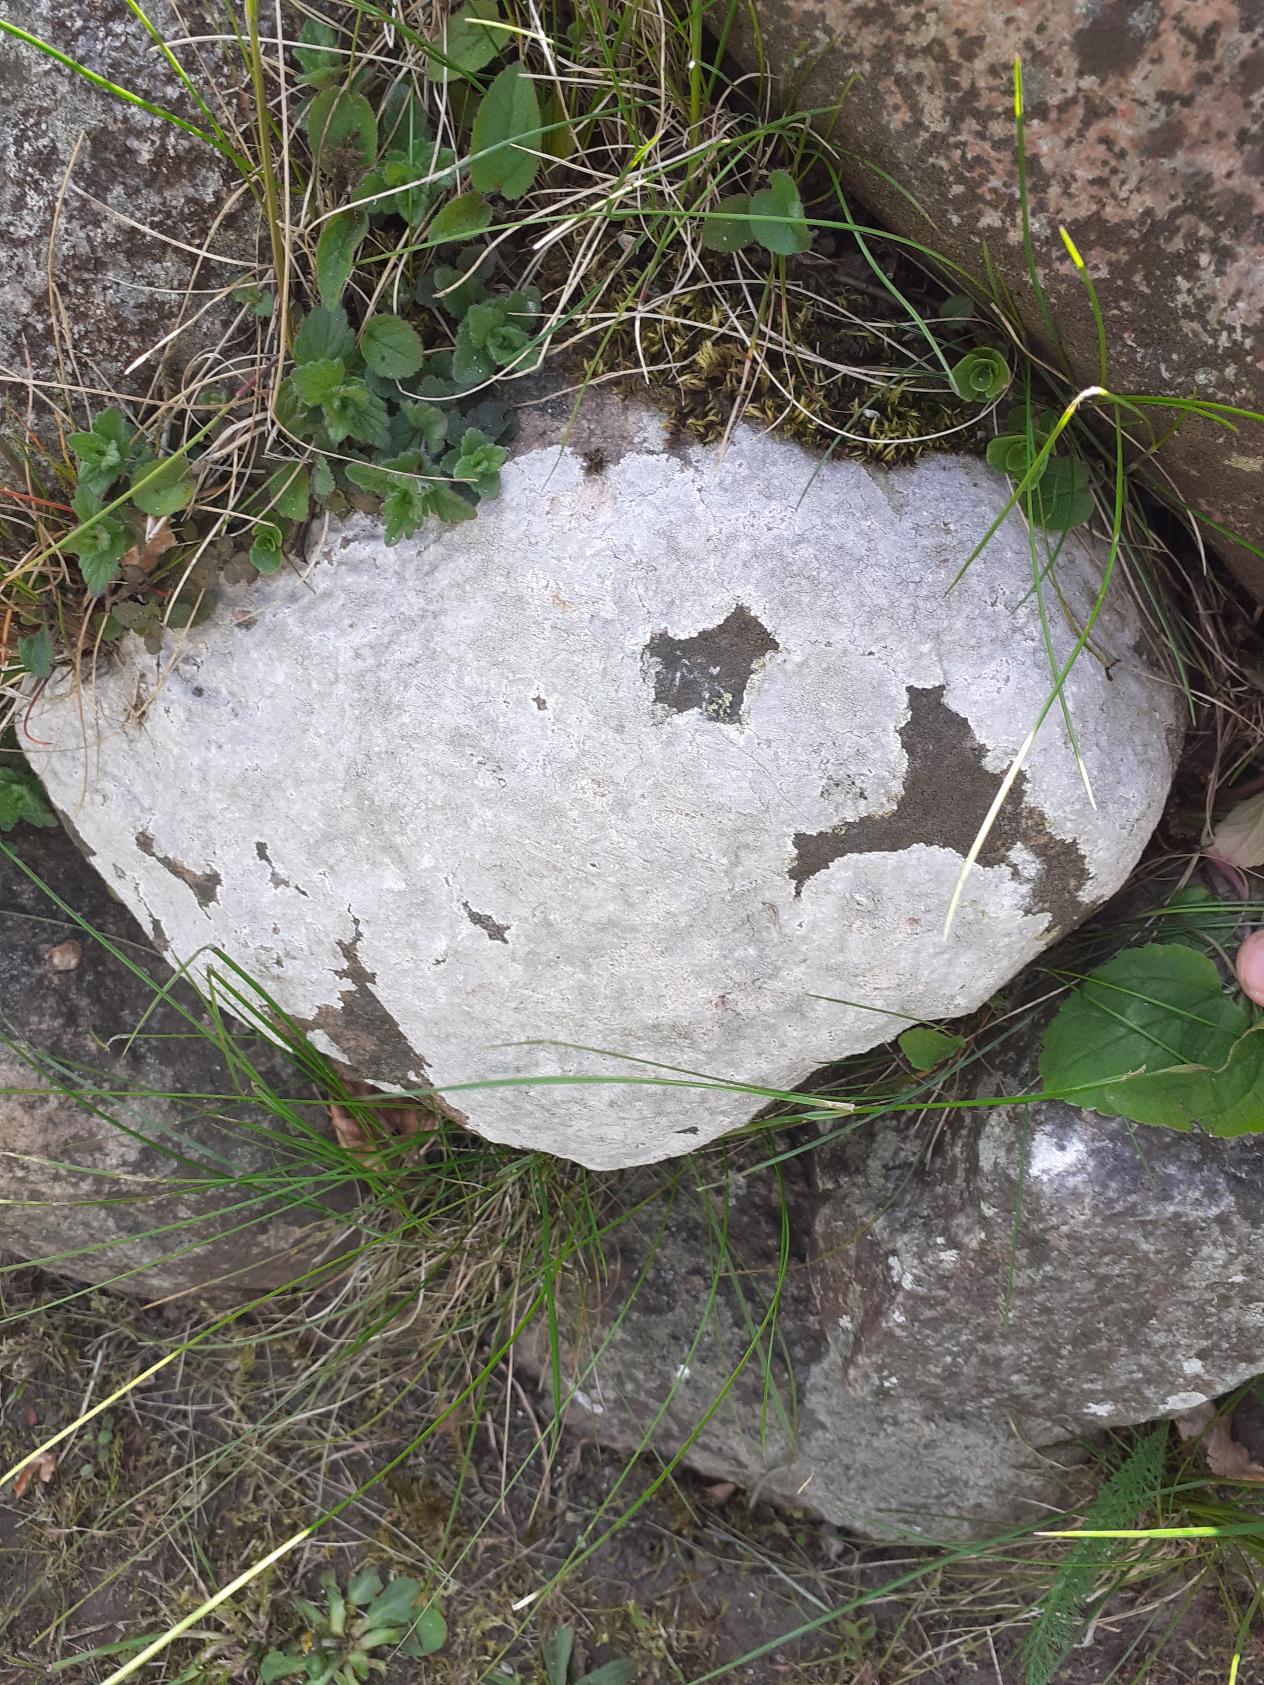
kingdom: Fungi
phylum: Ascomycota
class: Lecanoromycetes
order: Lecanorales
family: Lecanoraceae
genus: Glaucomaria
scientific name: Glaucomaria rupicola
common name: Stengærde-kantskivelav
